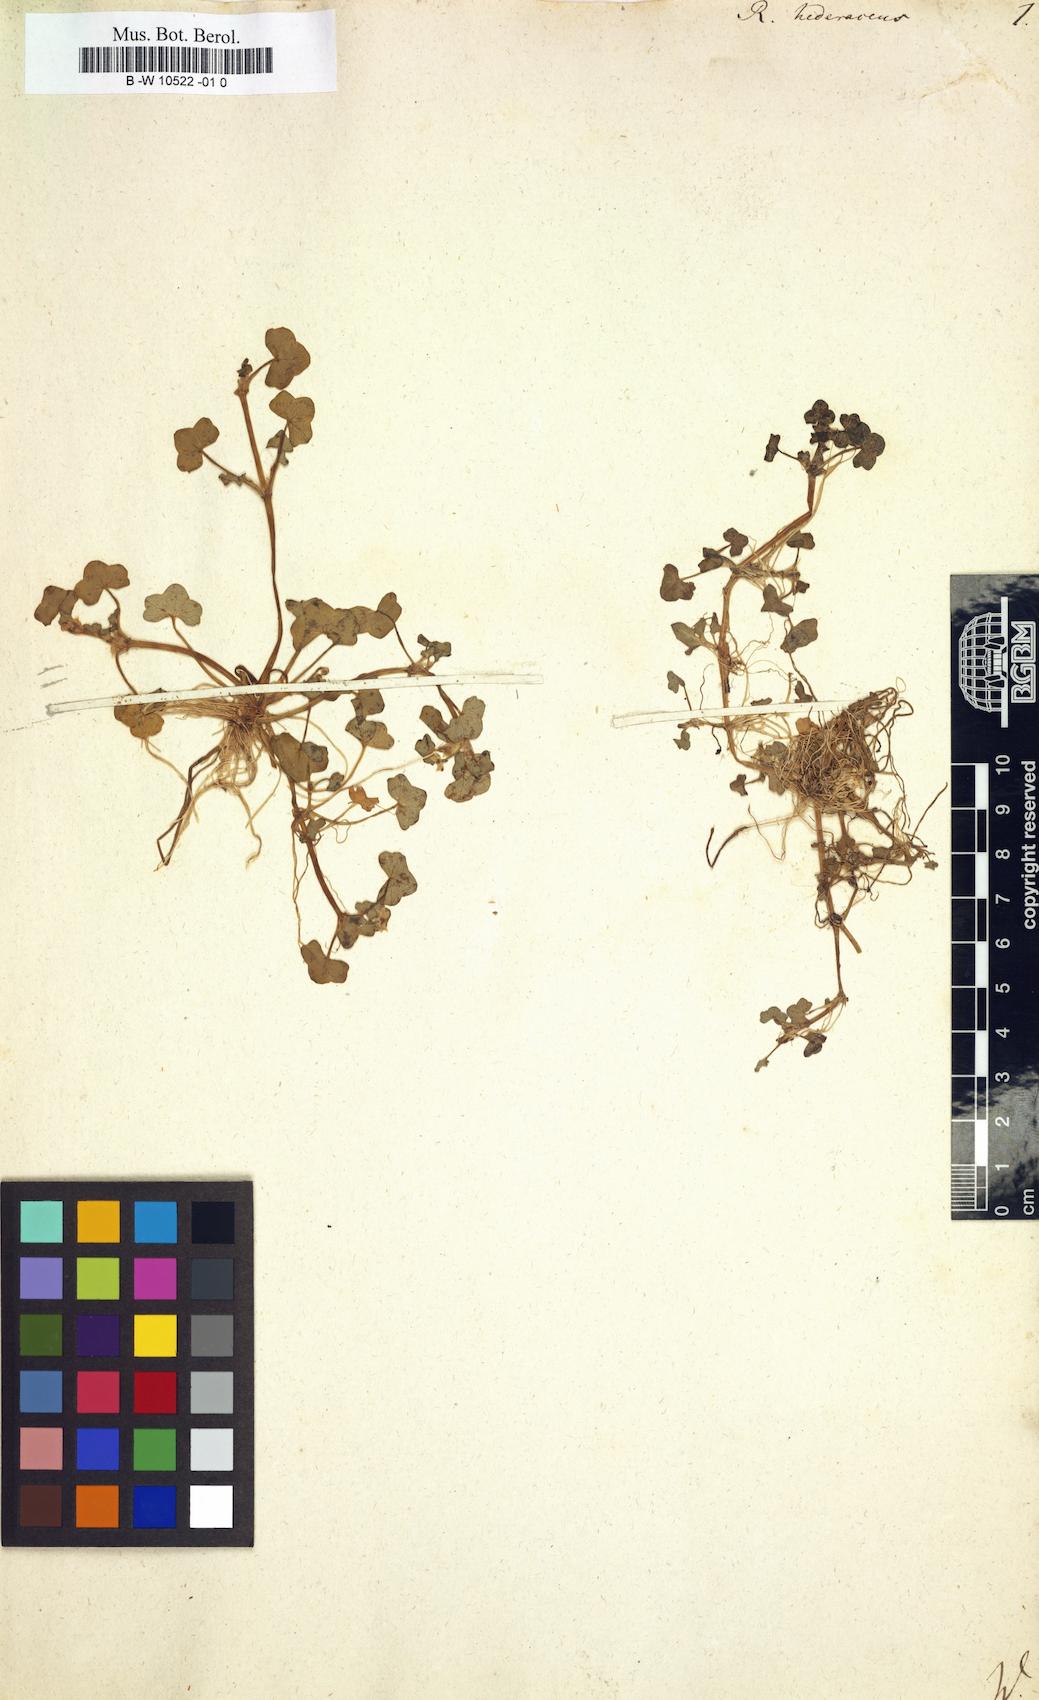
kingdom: Plantae
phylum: Tracheophyta
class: Magnoliopsida
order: Ranunculales
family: Ranunculaceae
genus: Ranunculus
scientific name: Ranunculus hederaceus
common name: Ivy-leaved crowfoot
